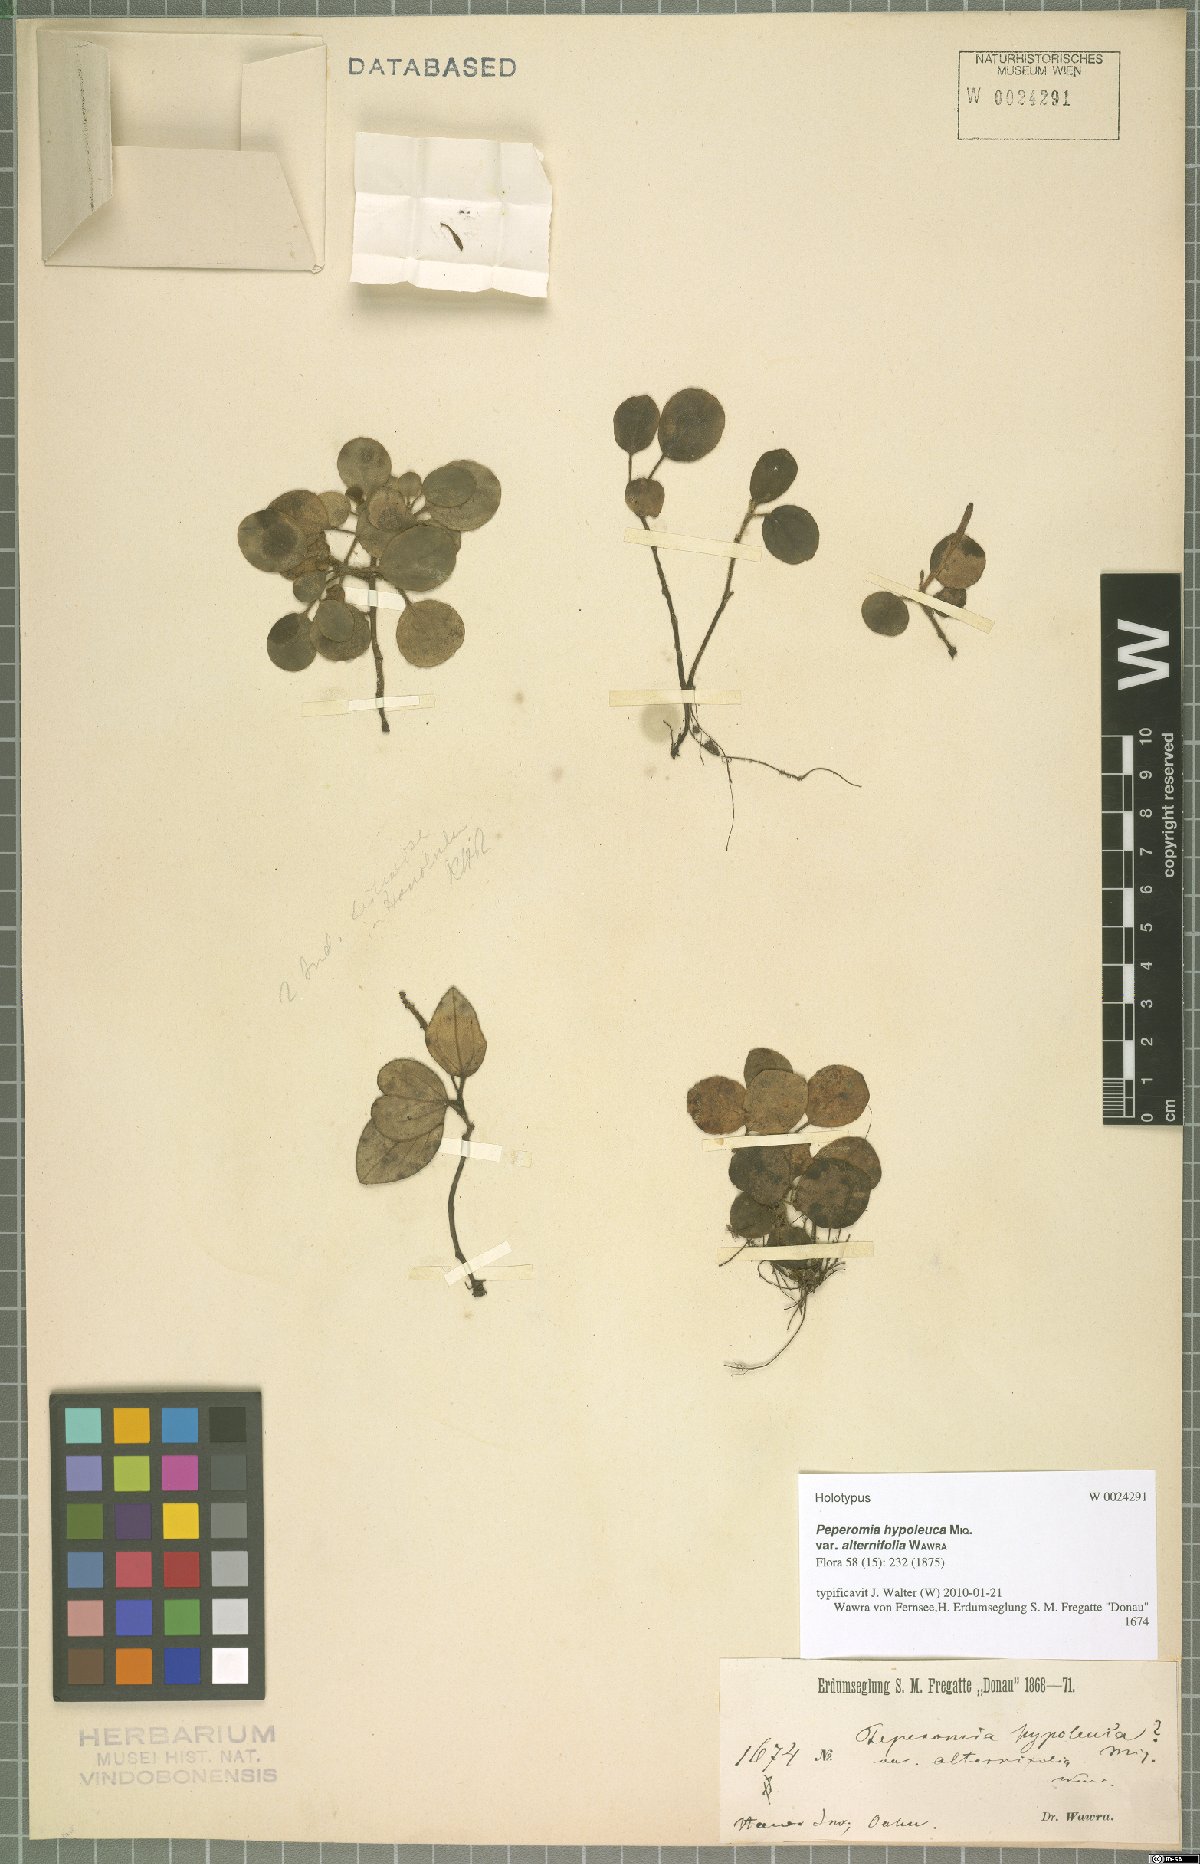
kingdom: Plantae
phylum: Tracheophyta
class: Magnoliopsida
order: Piperales
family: Piperaceae
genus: Peperomia
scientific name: Peperomia hypoleuca
